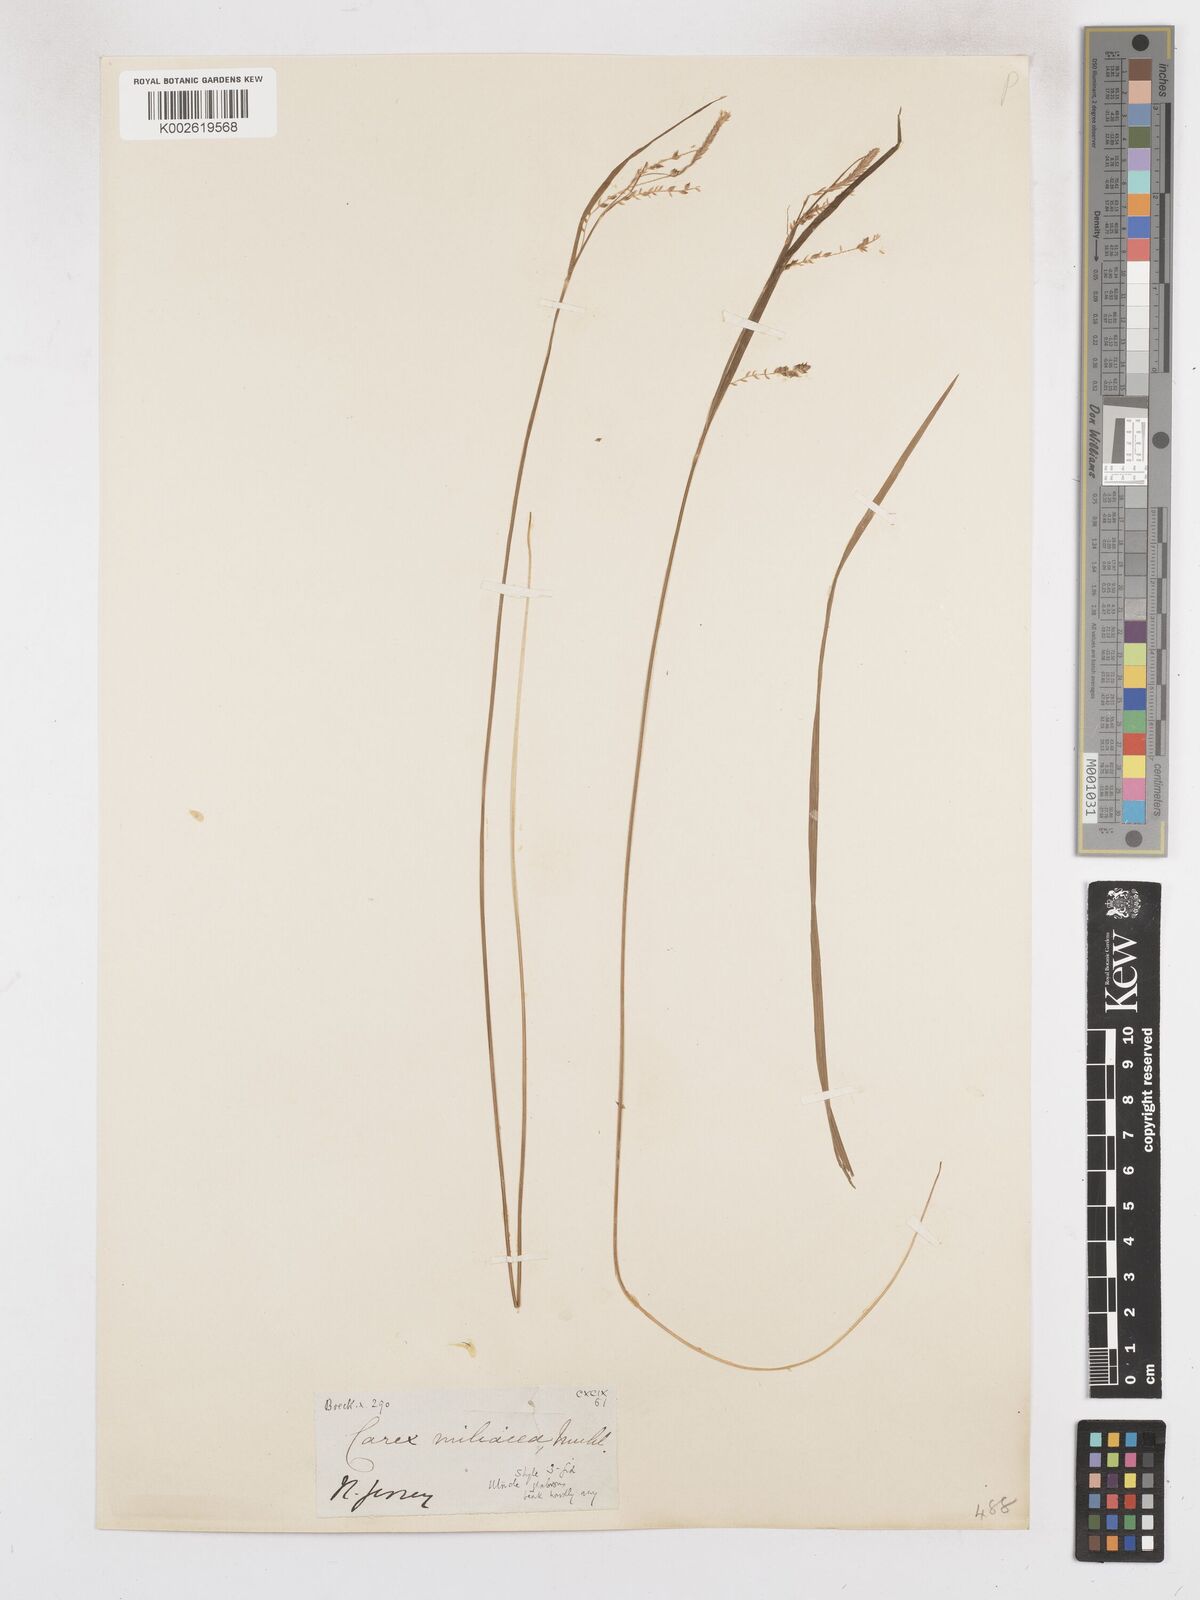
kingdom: Plantae
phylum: Tracheophyta
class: Liliopsida
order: Poales
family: Cyperaceae
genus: Carex
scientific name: Carex prasina
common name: Drooping sedge
